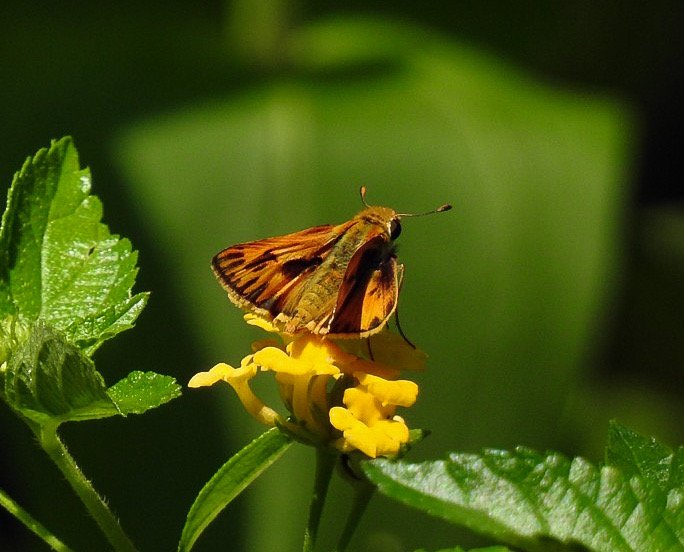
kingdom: Animalia
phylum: Arthropoda
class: Insecta
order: Lepidoptera
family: Hesperiidae
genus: Hylephila
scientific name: Hylephila phyleus
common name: Fiery Skipper
